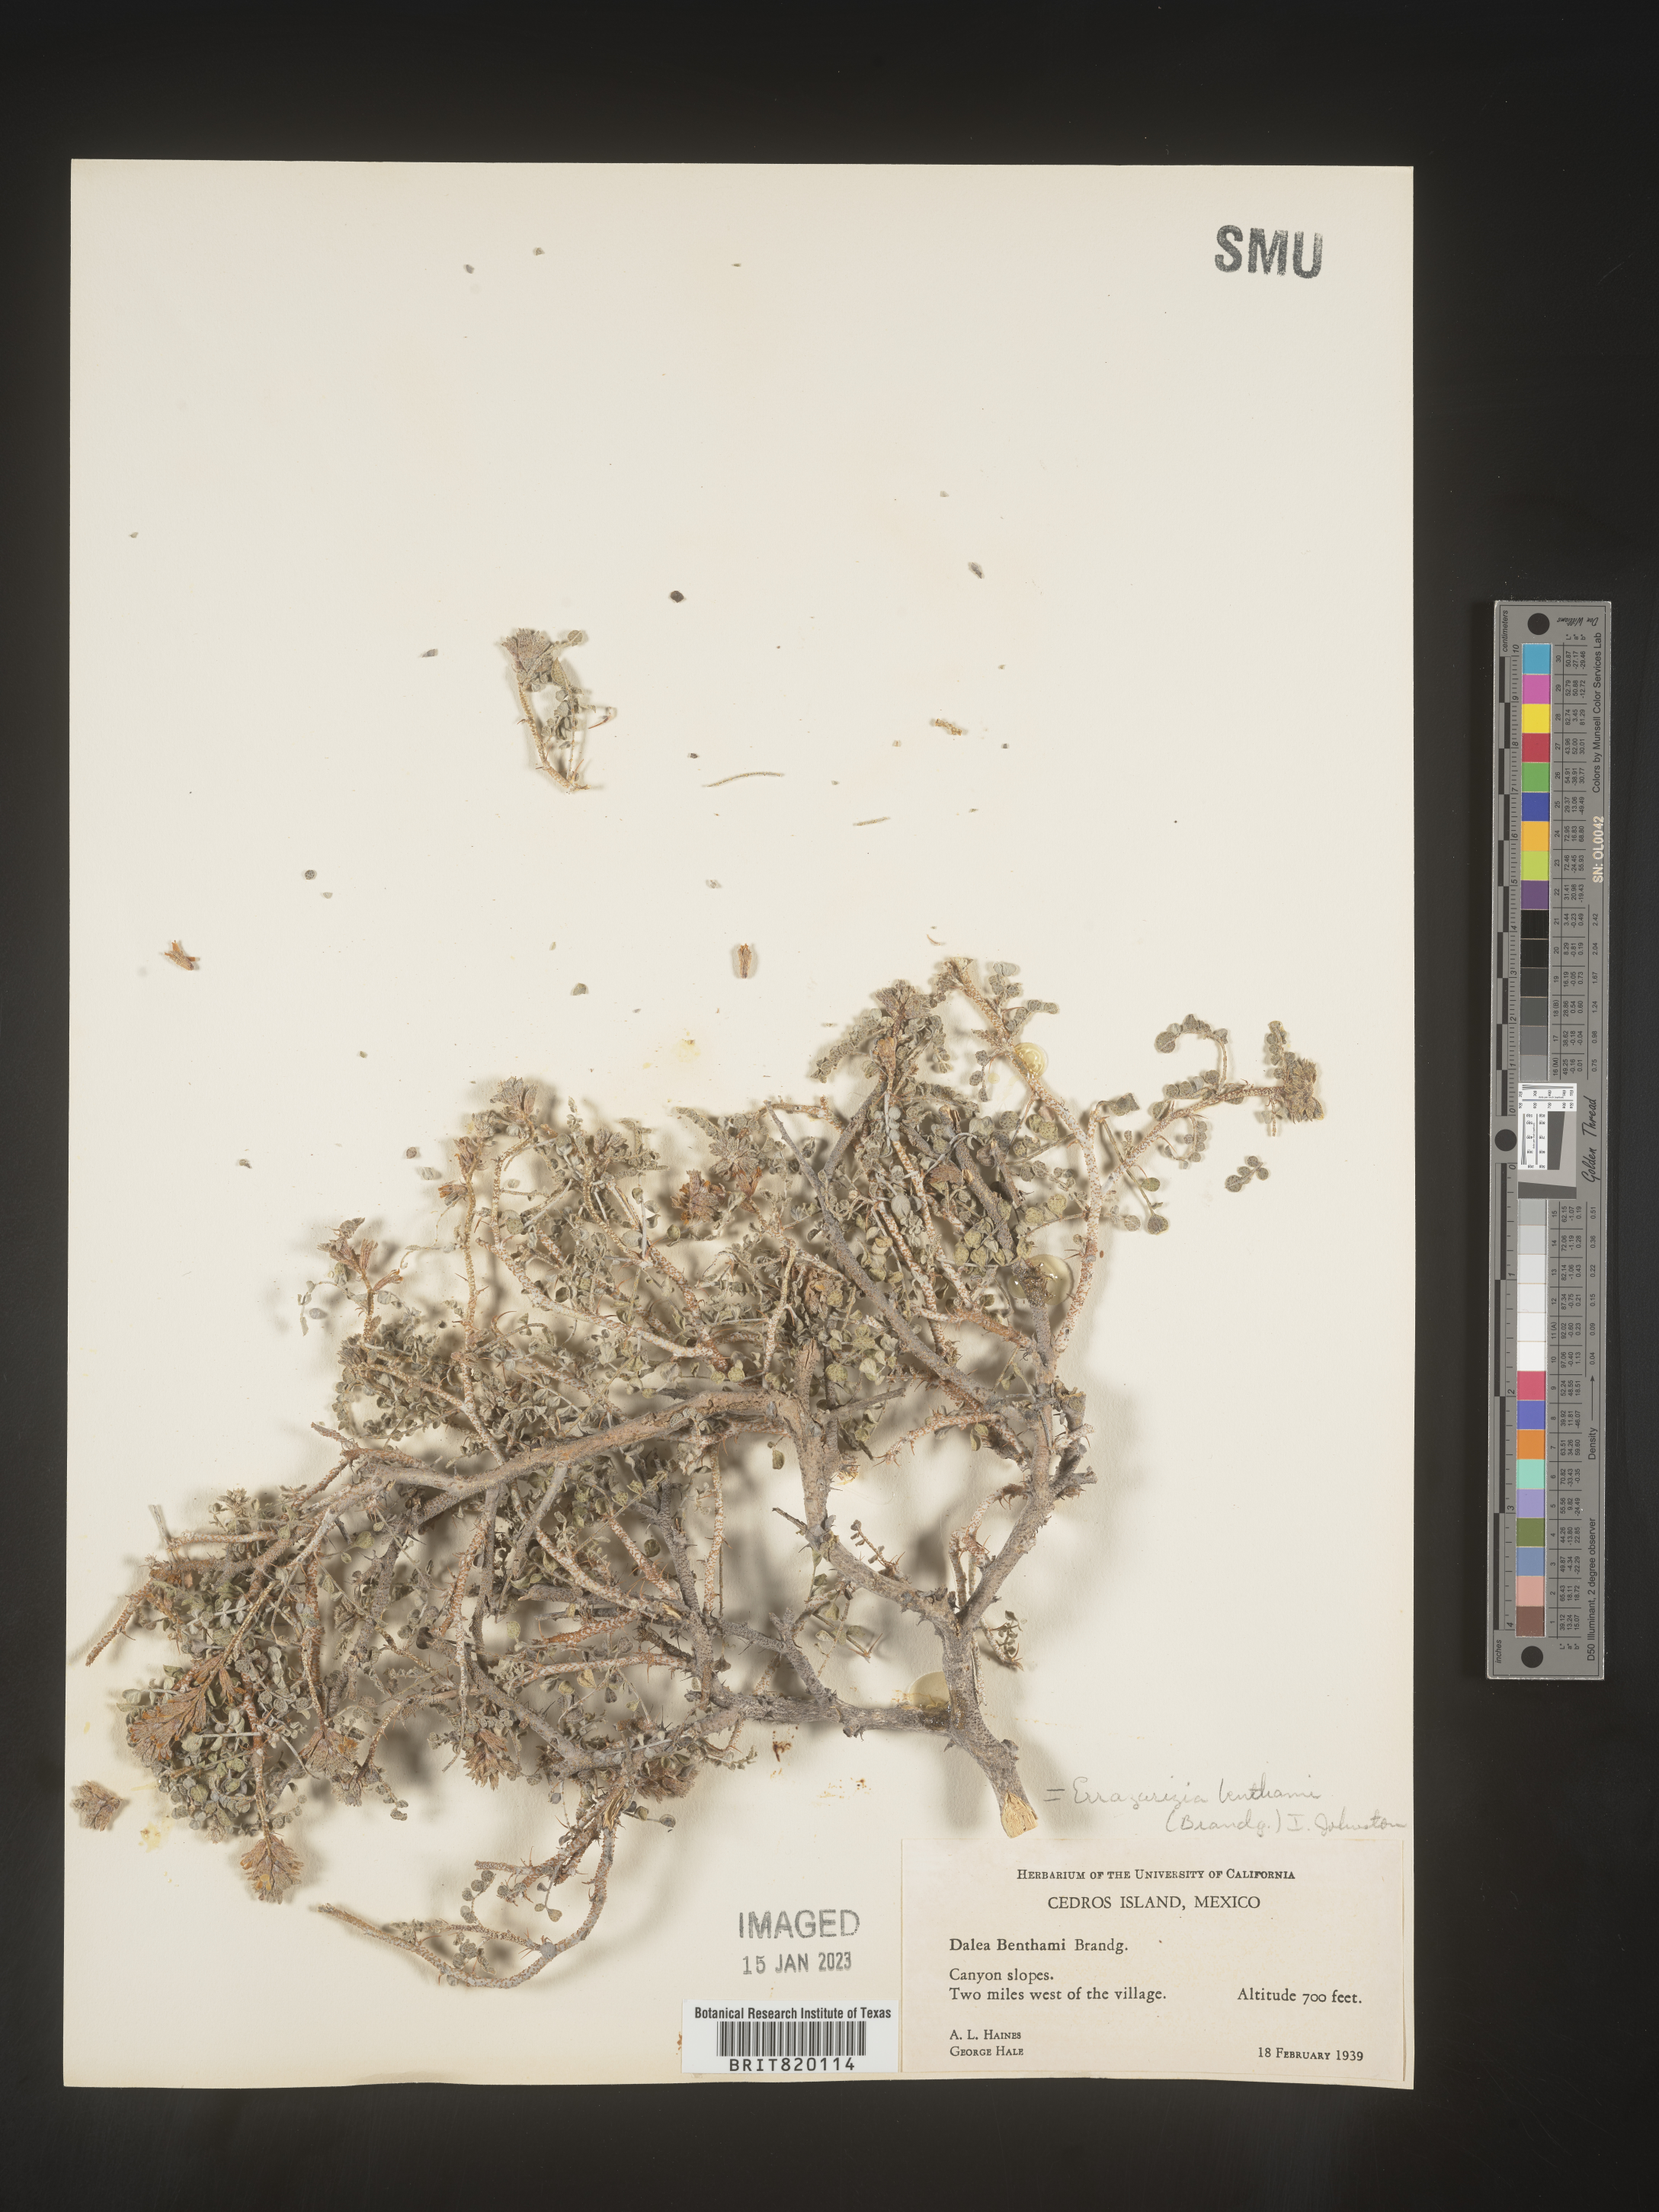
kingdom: Plantae
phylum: Tracheophyta
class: Magnoliopsida
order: Fabales
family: Fabaceae
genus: Errazurizia
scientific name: Errazurizia
